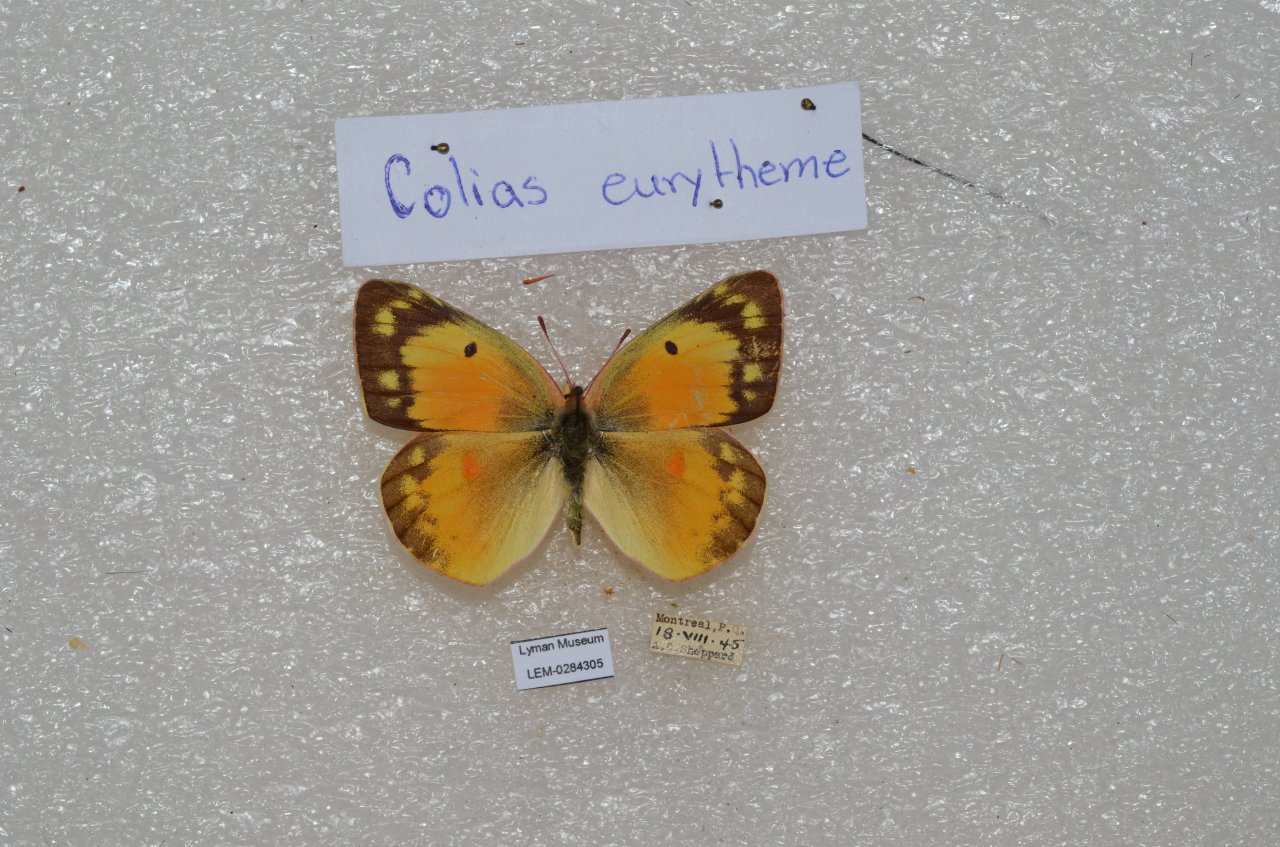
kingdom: Animalia
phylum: Arthropoda
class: Insecta
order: Lepidoptera
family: Pieridae
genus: Colias
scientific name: Colias eurytheme
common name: Orange Sulphur
